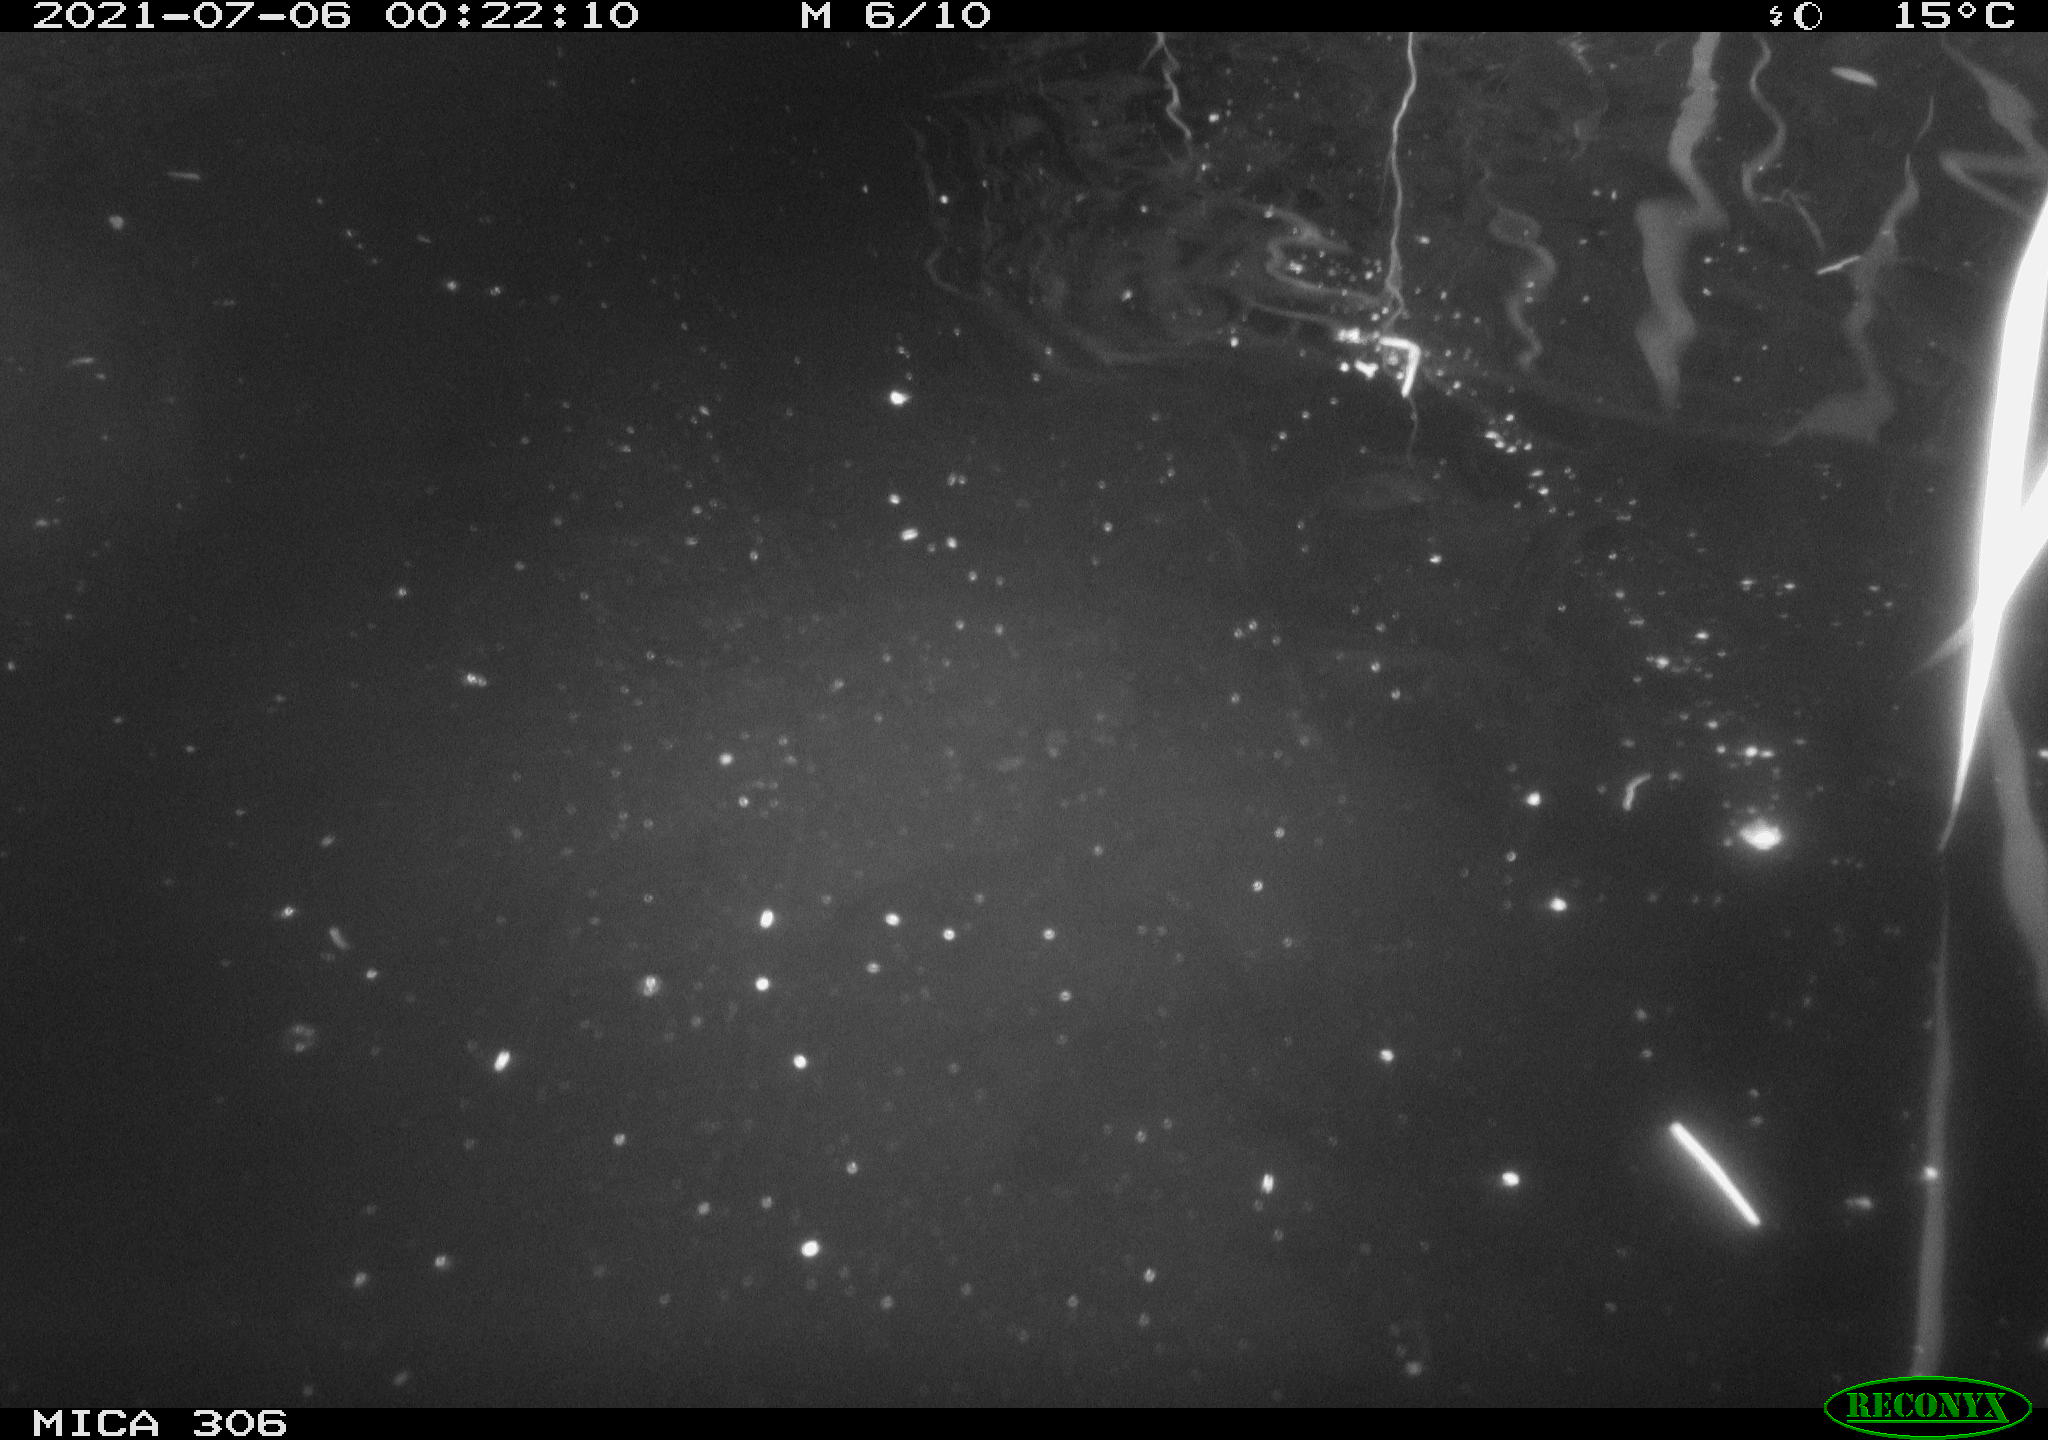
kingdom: Animalia
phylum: Chordata
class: Mammalia
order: Rodentia
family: Cricetidae
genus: Ondatra
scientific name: Ondatra zibethicus
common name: Muskrat
